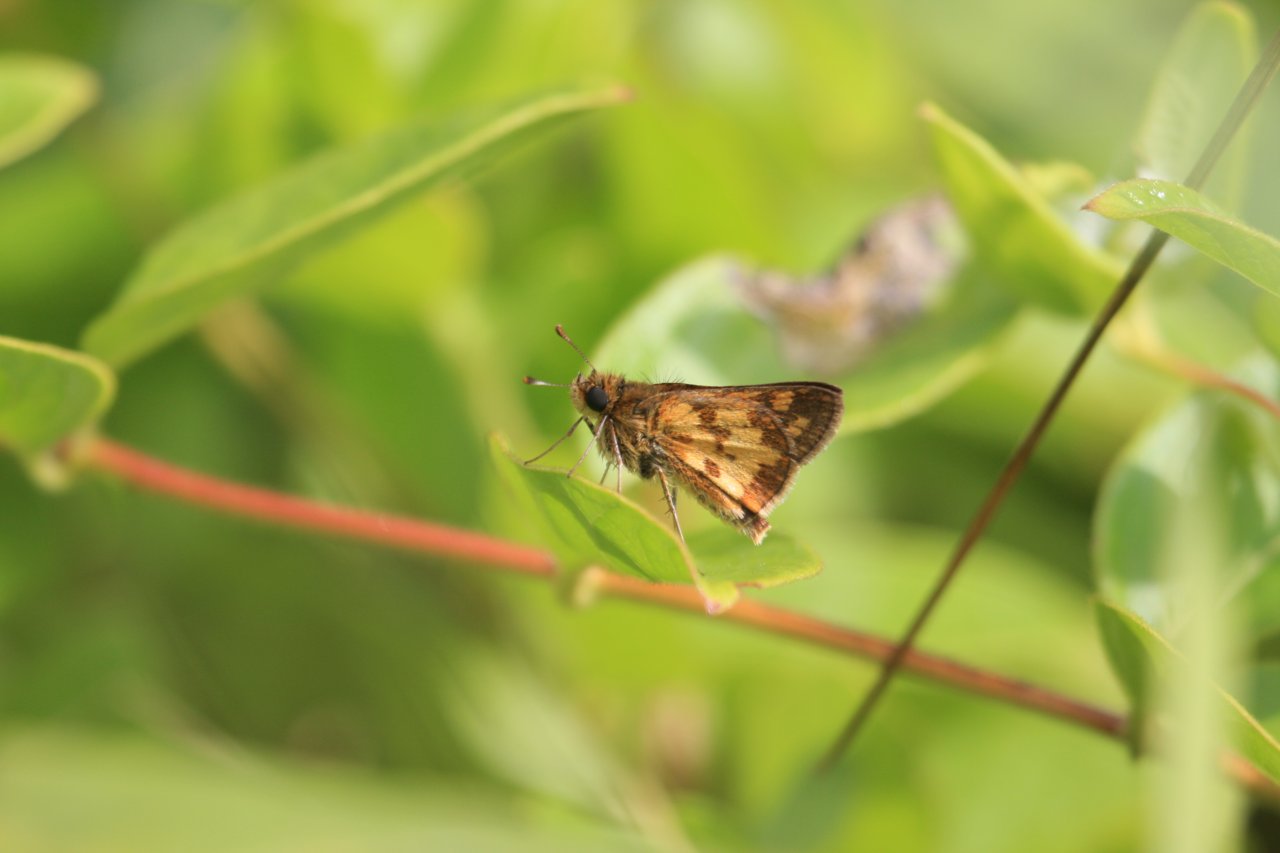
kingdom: Animalia
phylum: Arthropoda
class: Insecta
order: Lepidoptera
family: Hesperiidae
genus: Polites
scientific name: Polites coras
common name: Peck's Skipper
